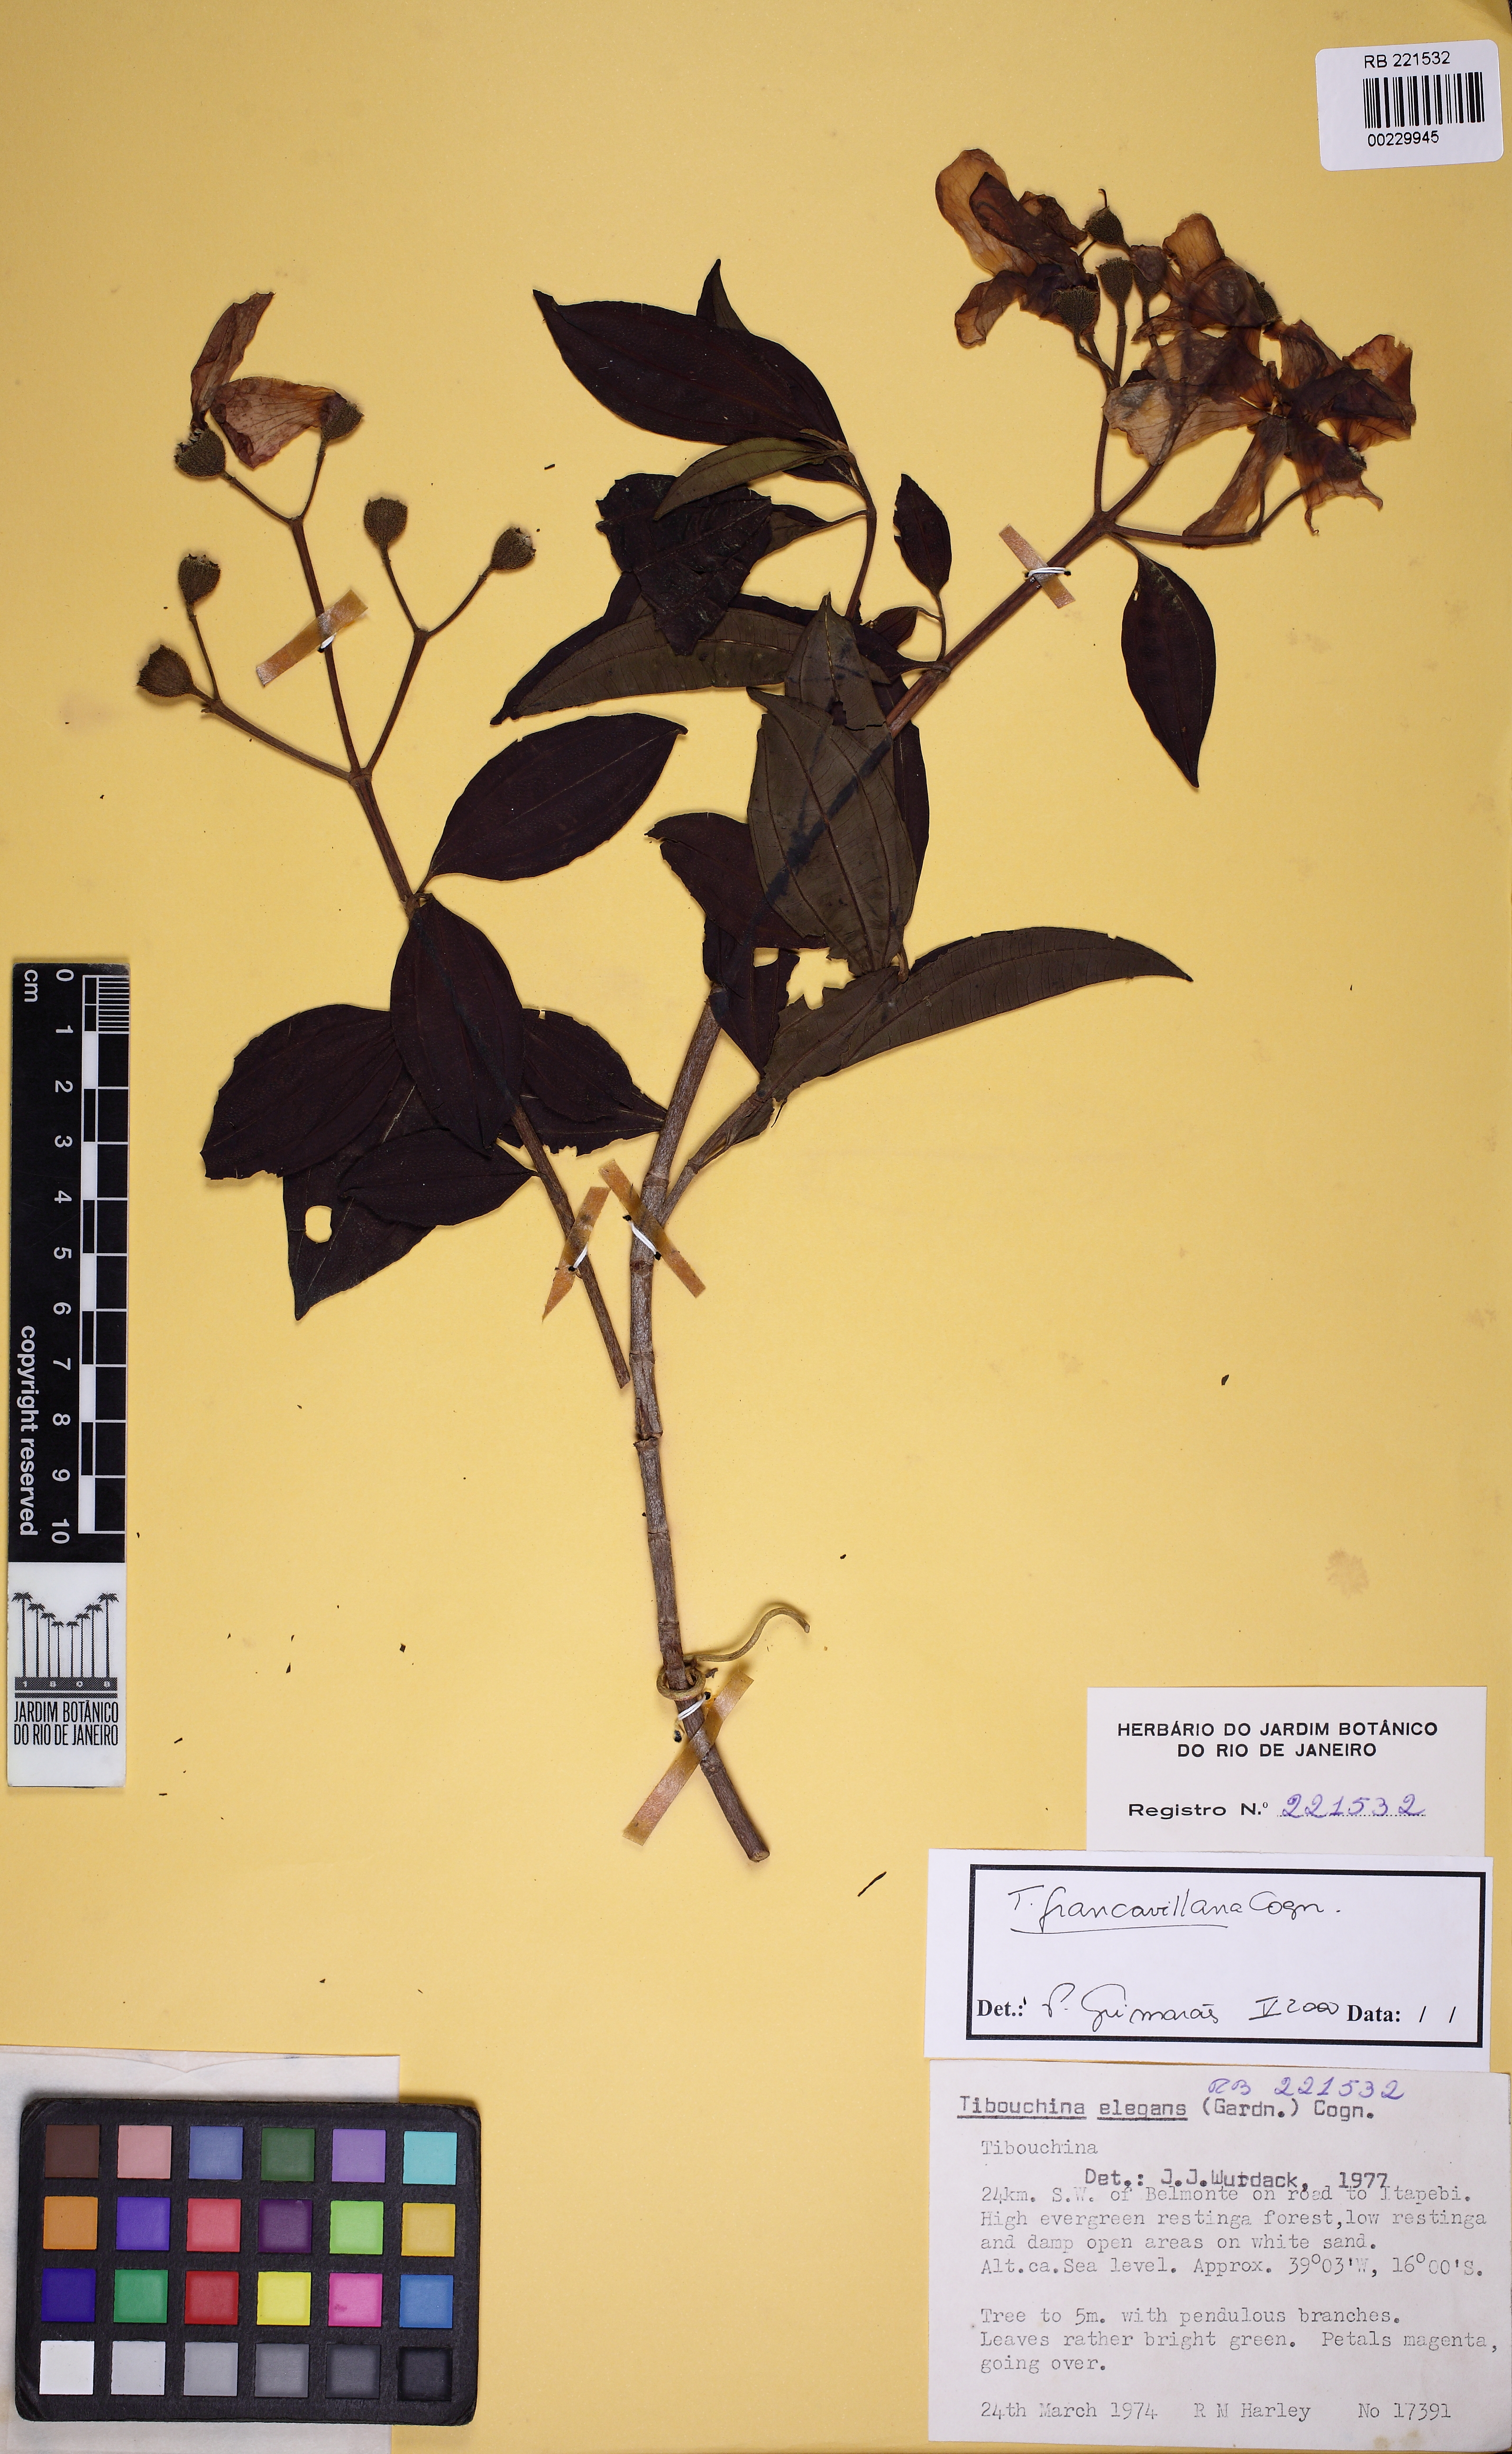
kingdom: Plantae
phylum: Tracheophyta
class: Magnoliopsida
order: Myrtales
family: Melastomataceae
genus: Pleroma
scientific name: Pleroma elegans
